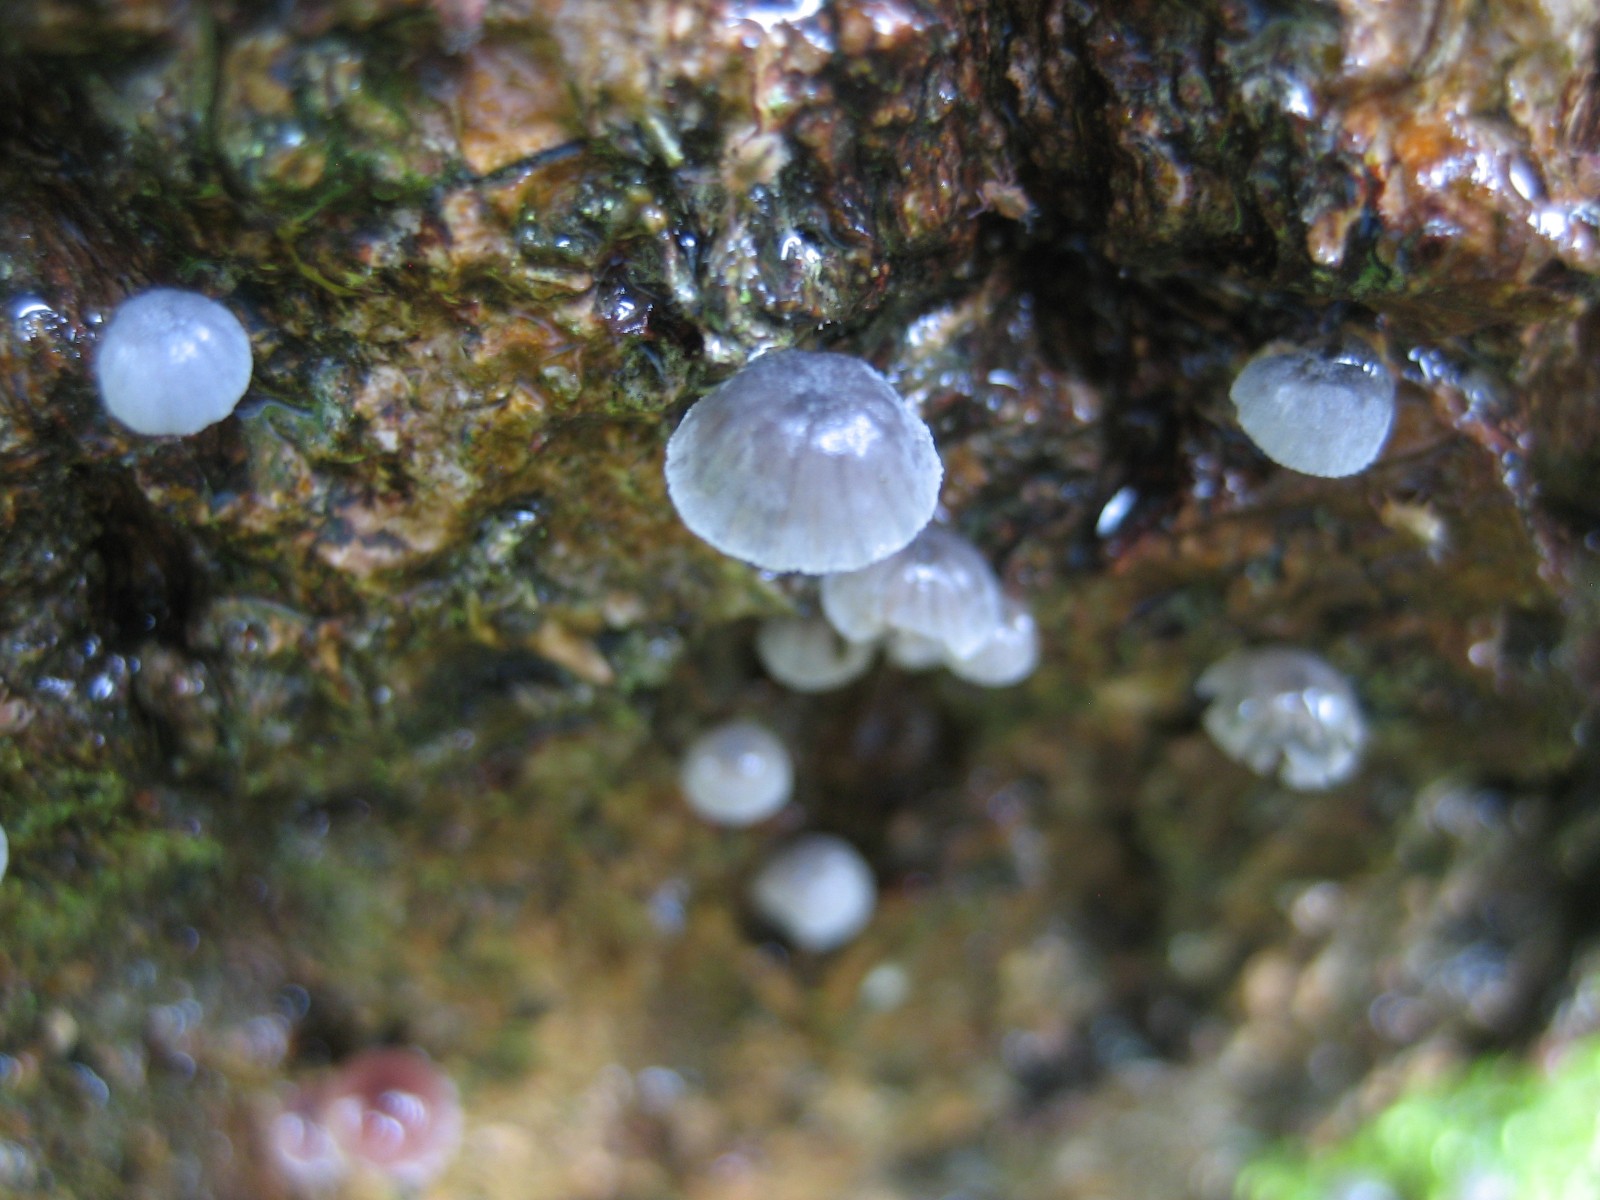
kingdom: Fungi
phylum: Basidiomycota
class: Agaricomycetes
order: Agaricales
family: Mycenaceae
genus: Mycena
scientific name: Mycena pseudocorticola
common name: gråblå bark-huesvamp
